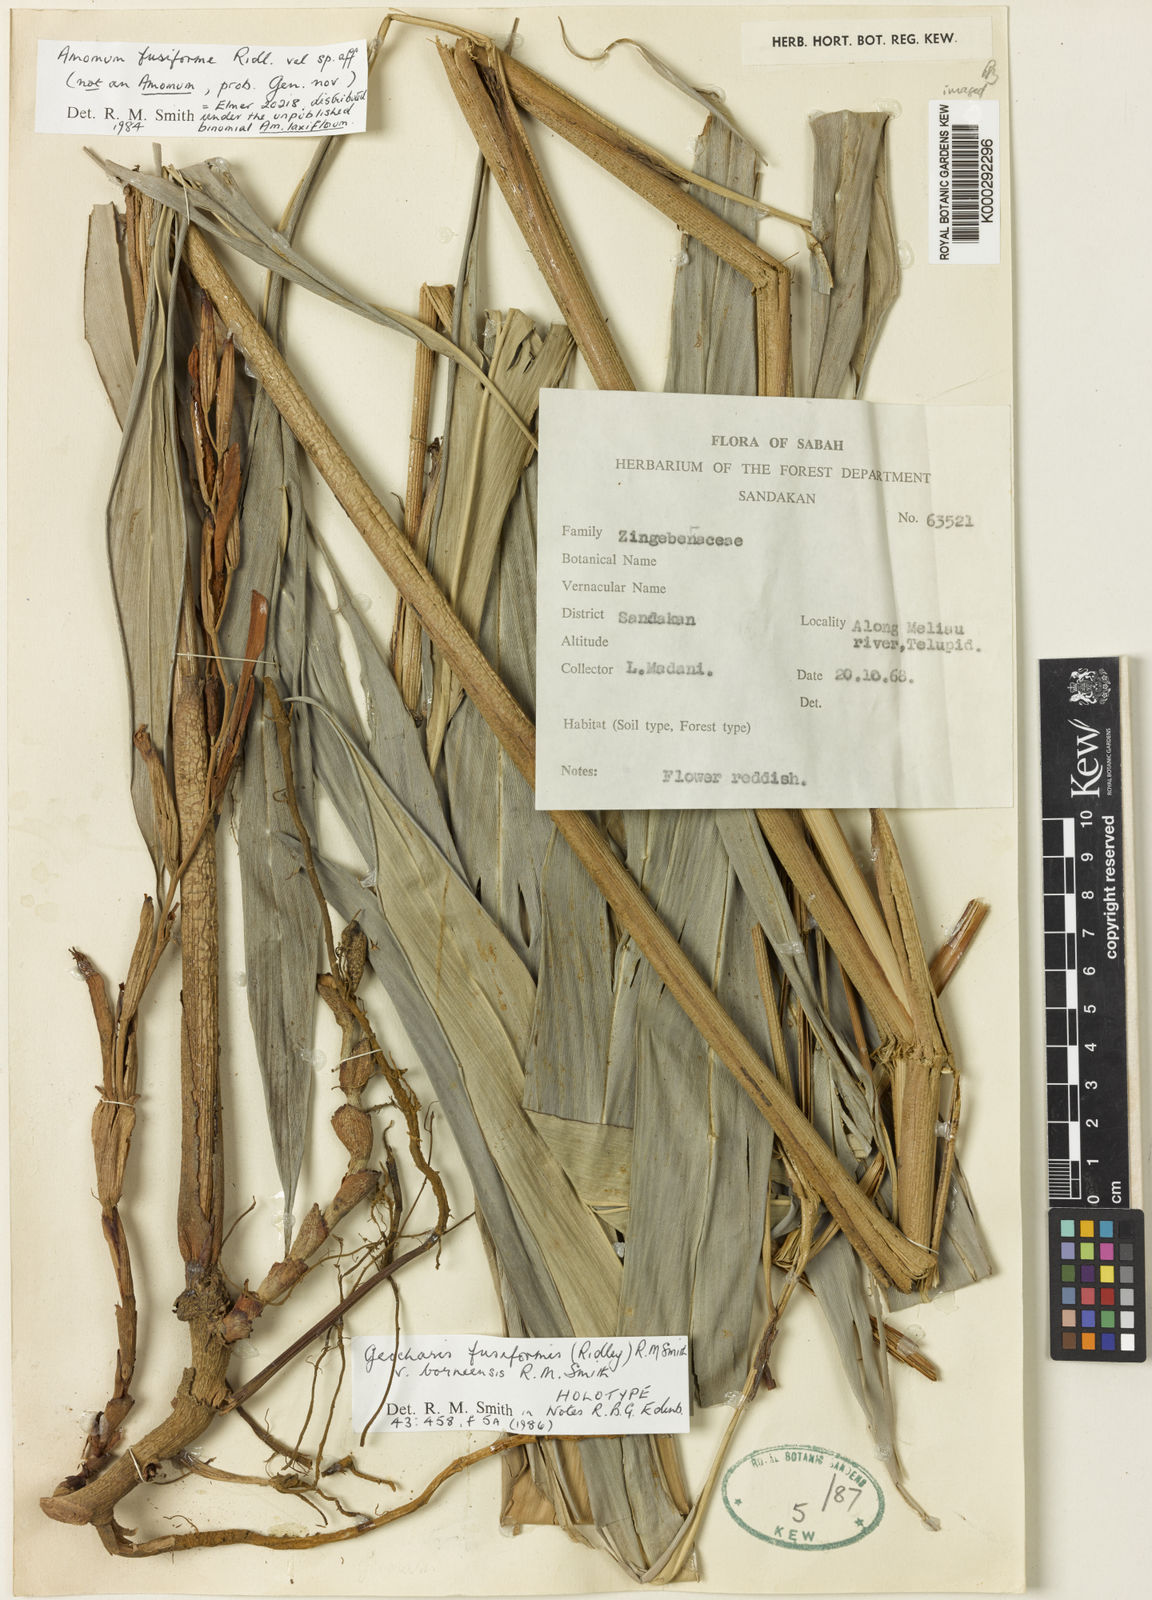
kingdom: Plantae
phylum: Tracheophyta
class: Liliopsida
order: Zingiberales
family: Zingiberaceae
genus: Geocharis
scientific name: Geocharis fusiformis
